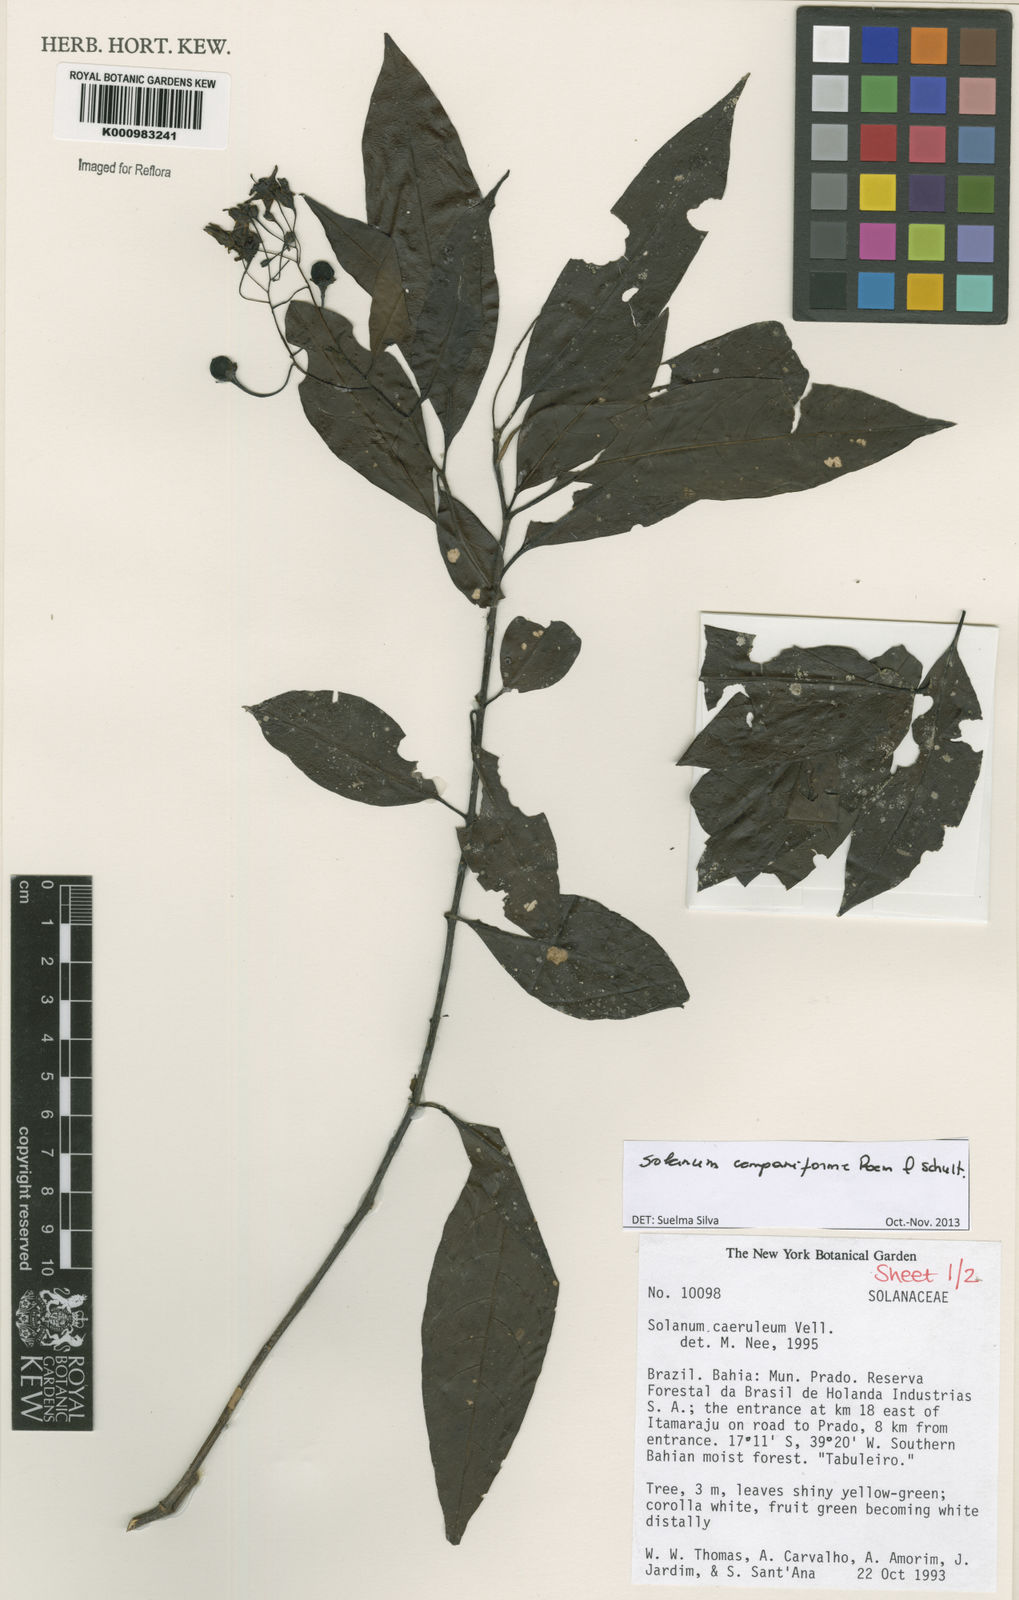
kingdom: Plantae
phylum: Tracheophyta
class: Magnoliopsida
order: Solanales
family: Solanaceae
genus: Solanum
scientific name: Solanum campaniforme
